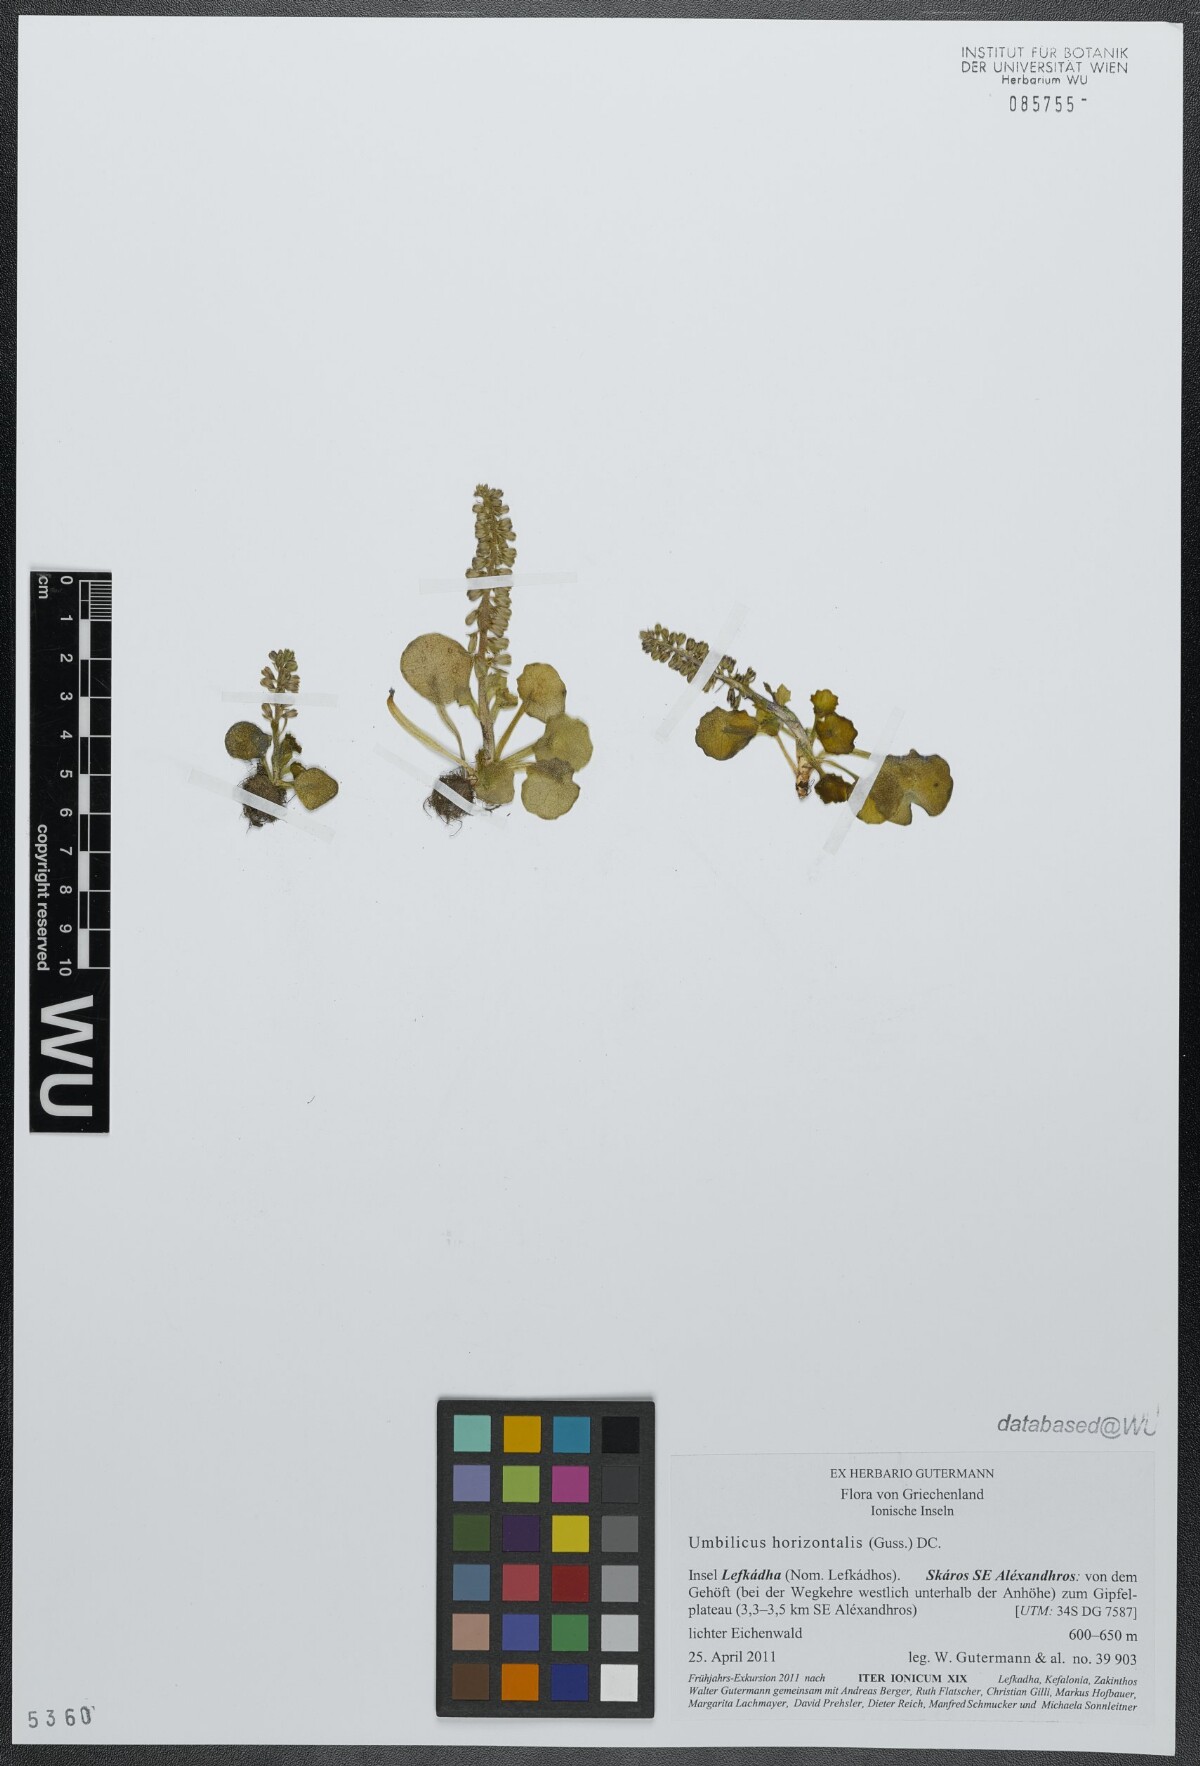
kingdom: Plantae
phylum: Tracheophyta
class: Magnoliopsida
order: Saxifragales
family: Crassulaceae
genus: Umbilicus
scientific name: Umbilicus horizontalis
